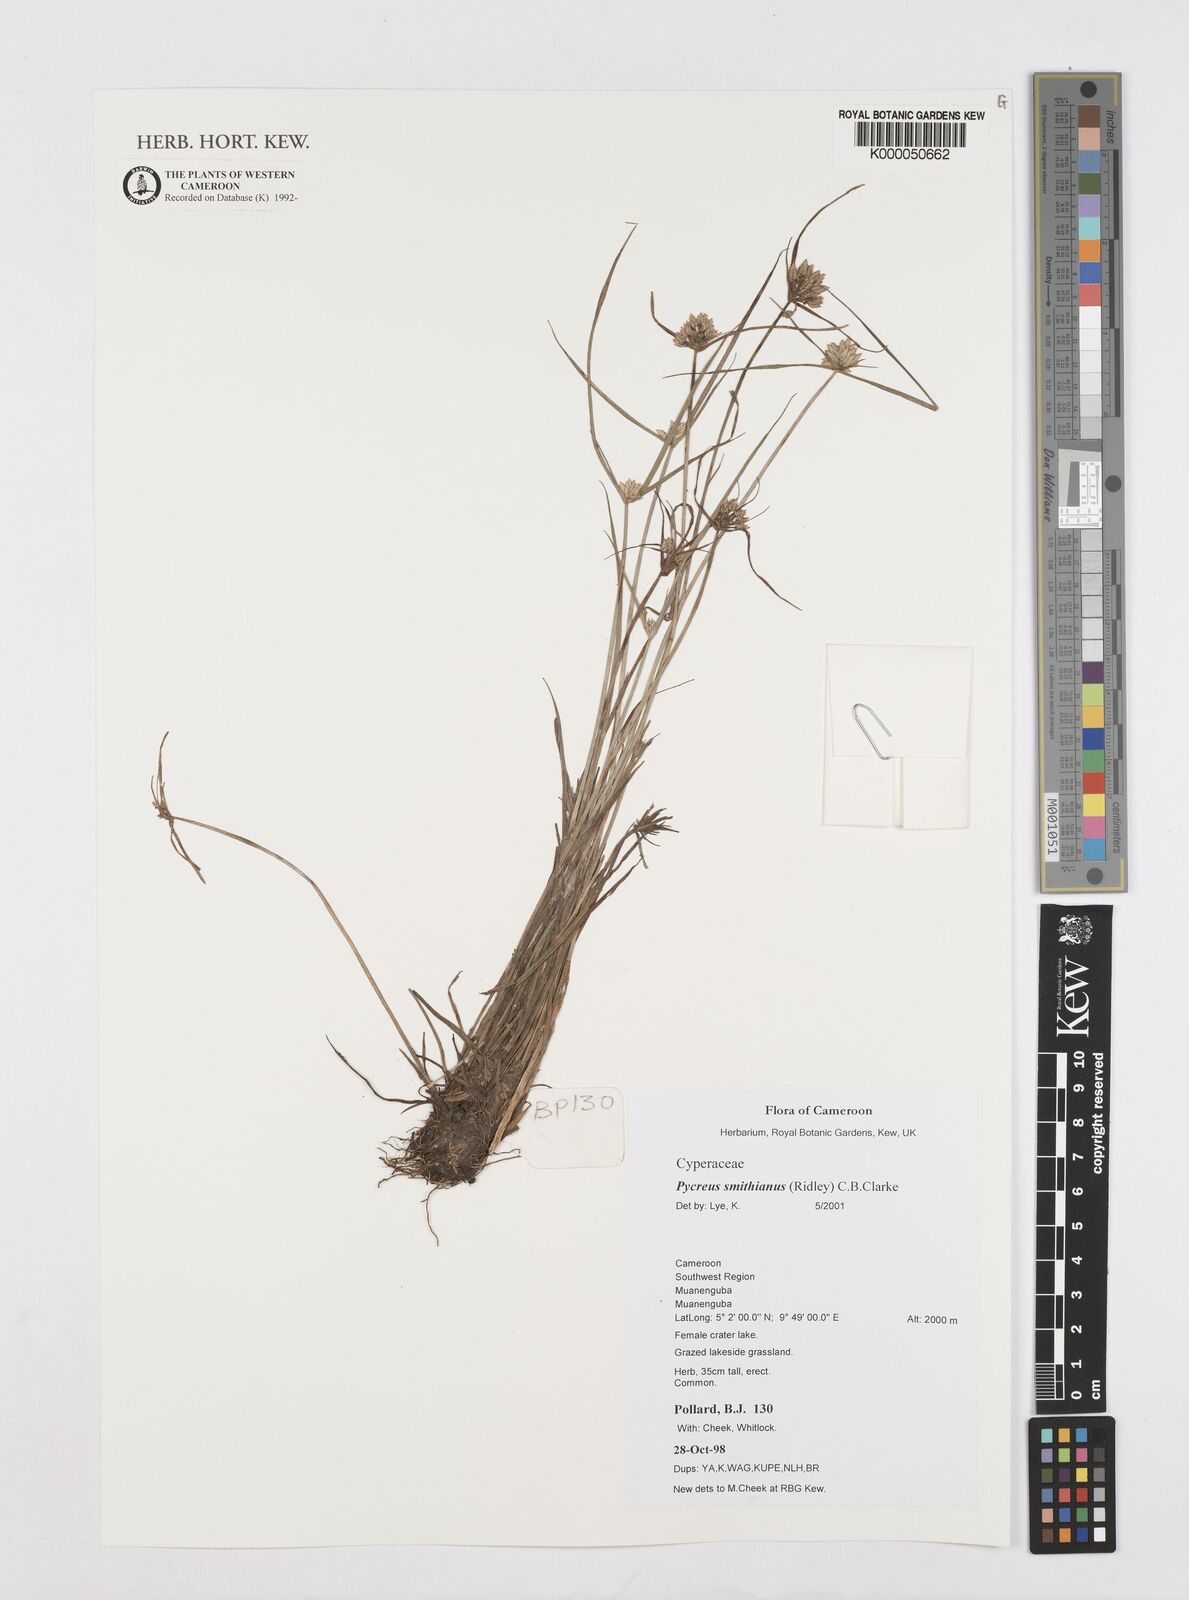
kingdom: Plantae
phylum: Tracheophyta
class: Liliopsida
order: Poales
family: Cyperaceae
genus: Cyperus
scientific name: Cyperus smithianus
